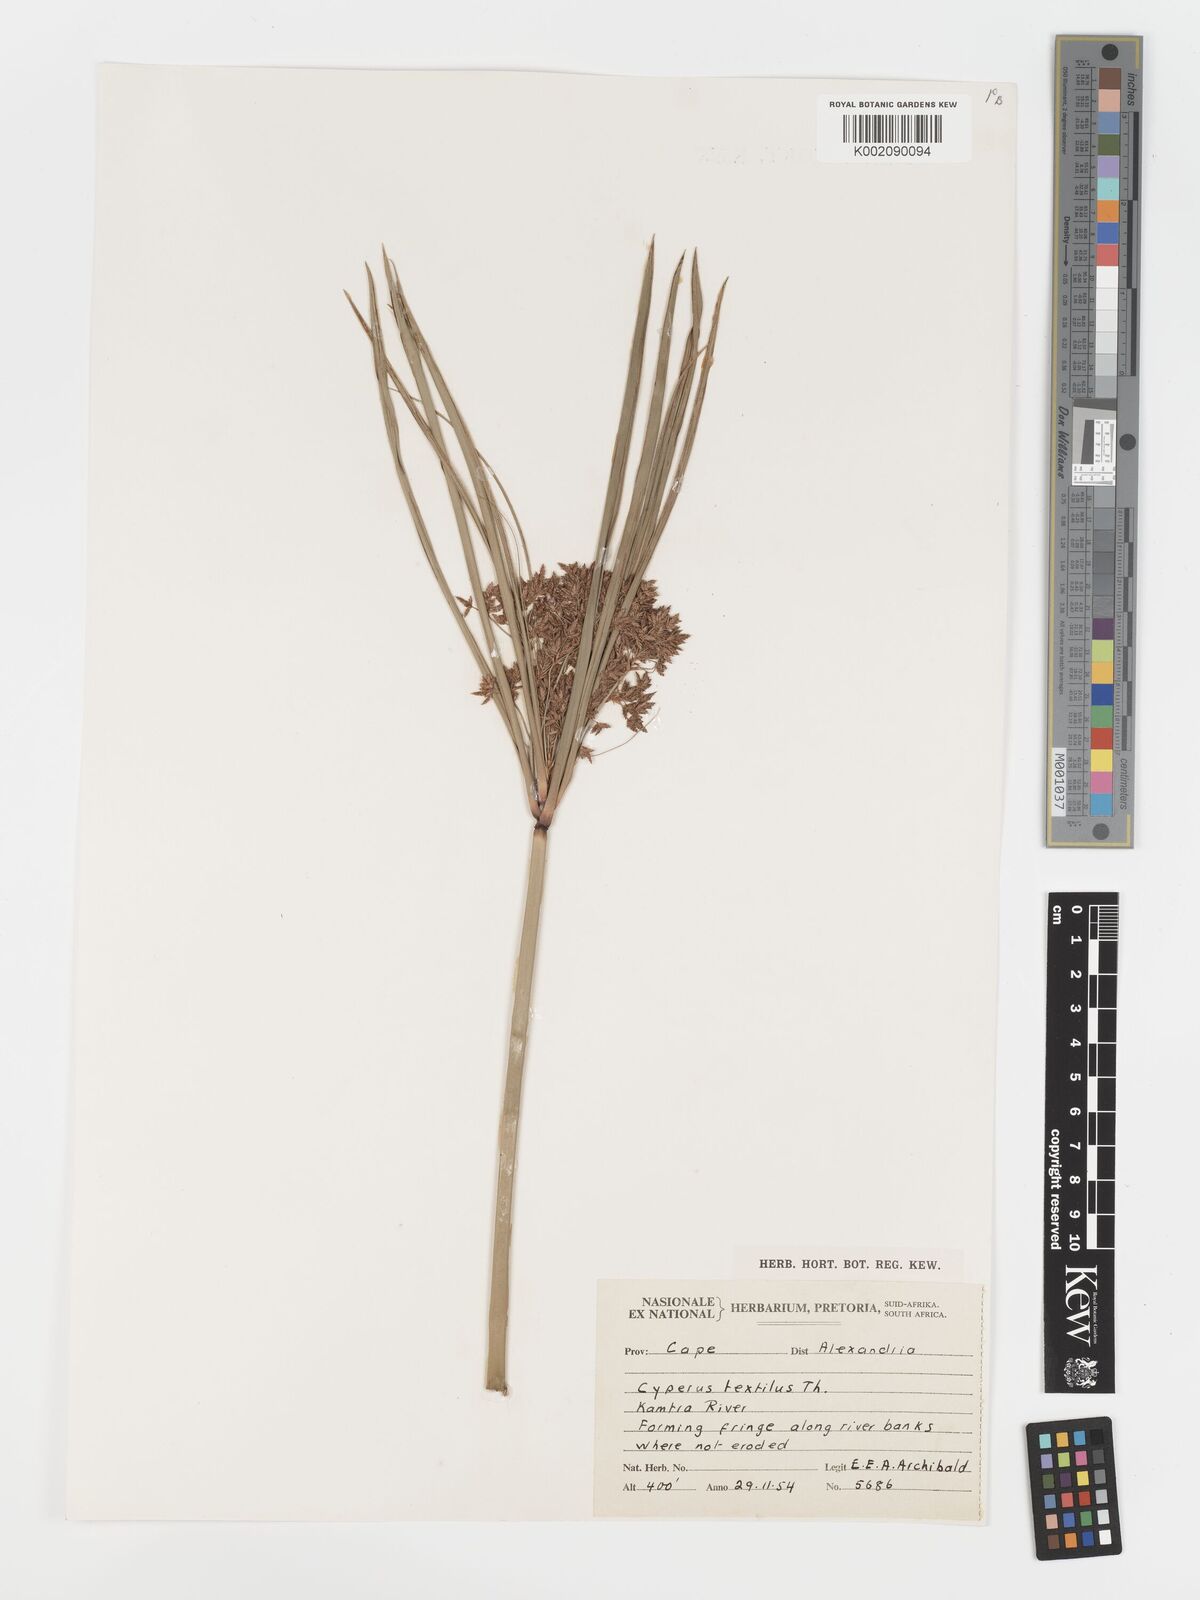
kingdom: Plantae
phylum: Tracheophyta
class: Liliopsida
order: Poales
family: Cyperaceae
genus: Cyperus
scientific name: Cyperus alternifolius
